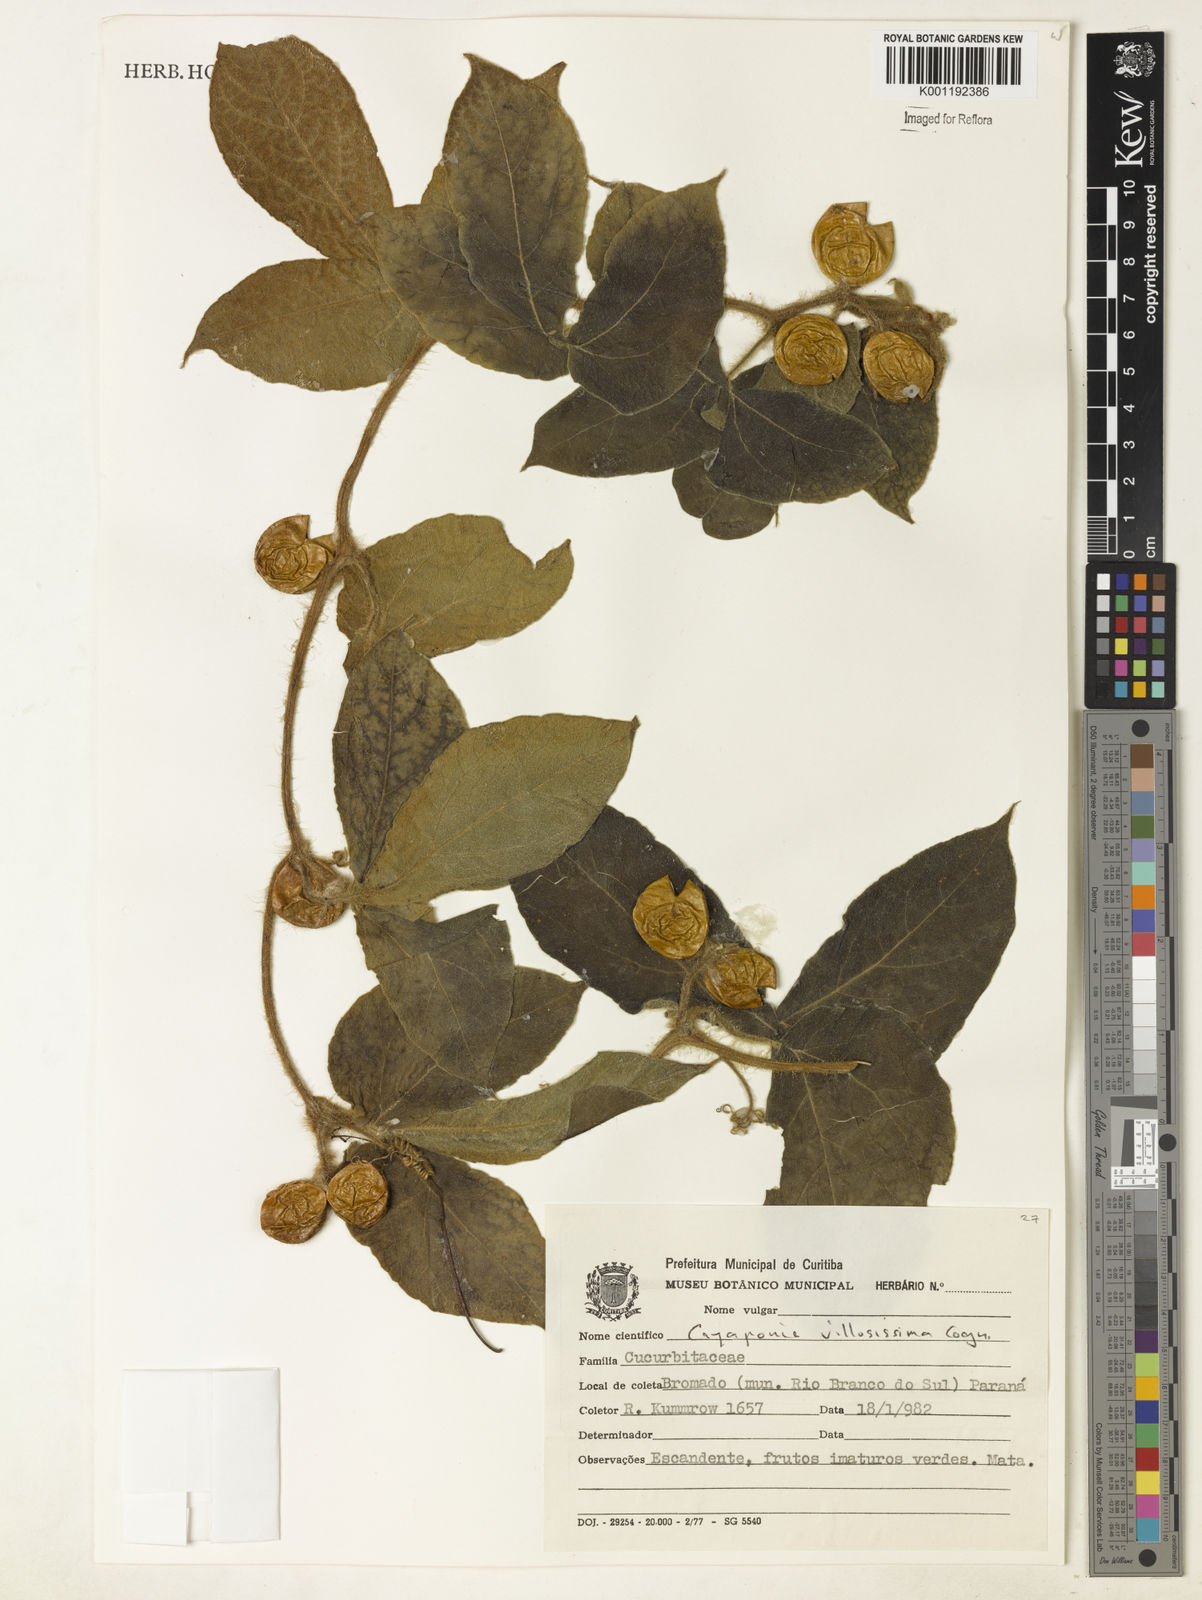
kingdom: Plantae
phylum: Tracheophyta
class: Magnoliopsida
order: Cucurbitales
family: Cucurbitaceae
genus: Cayaponia
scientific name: Cayaponia villosissima
